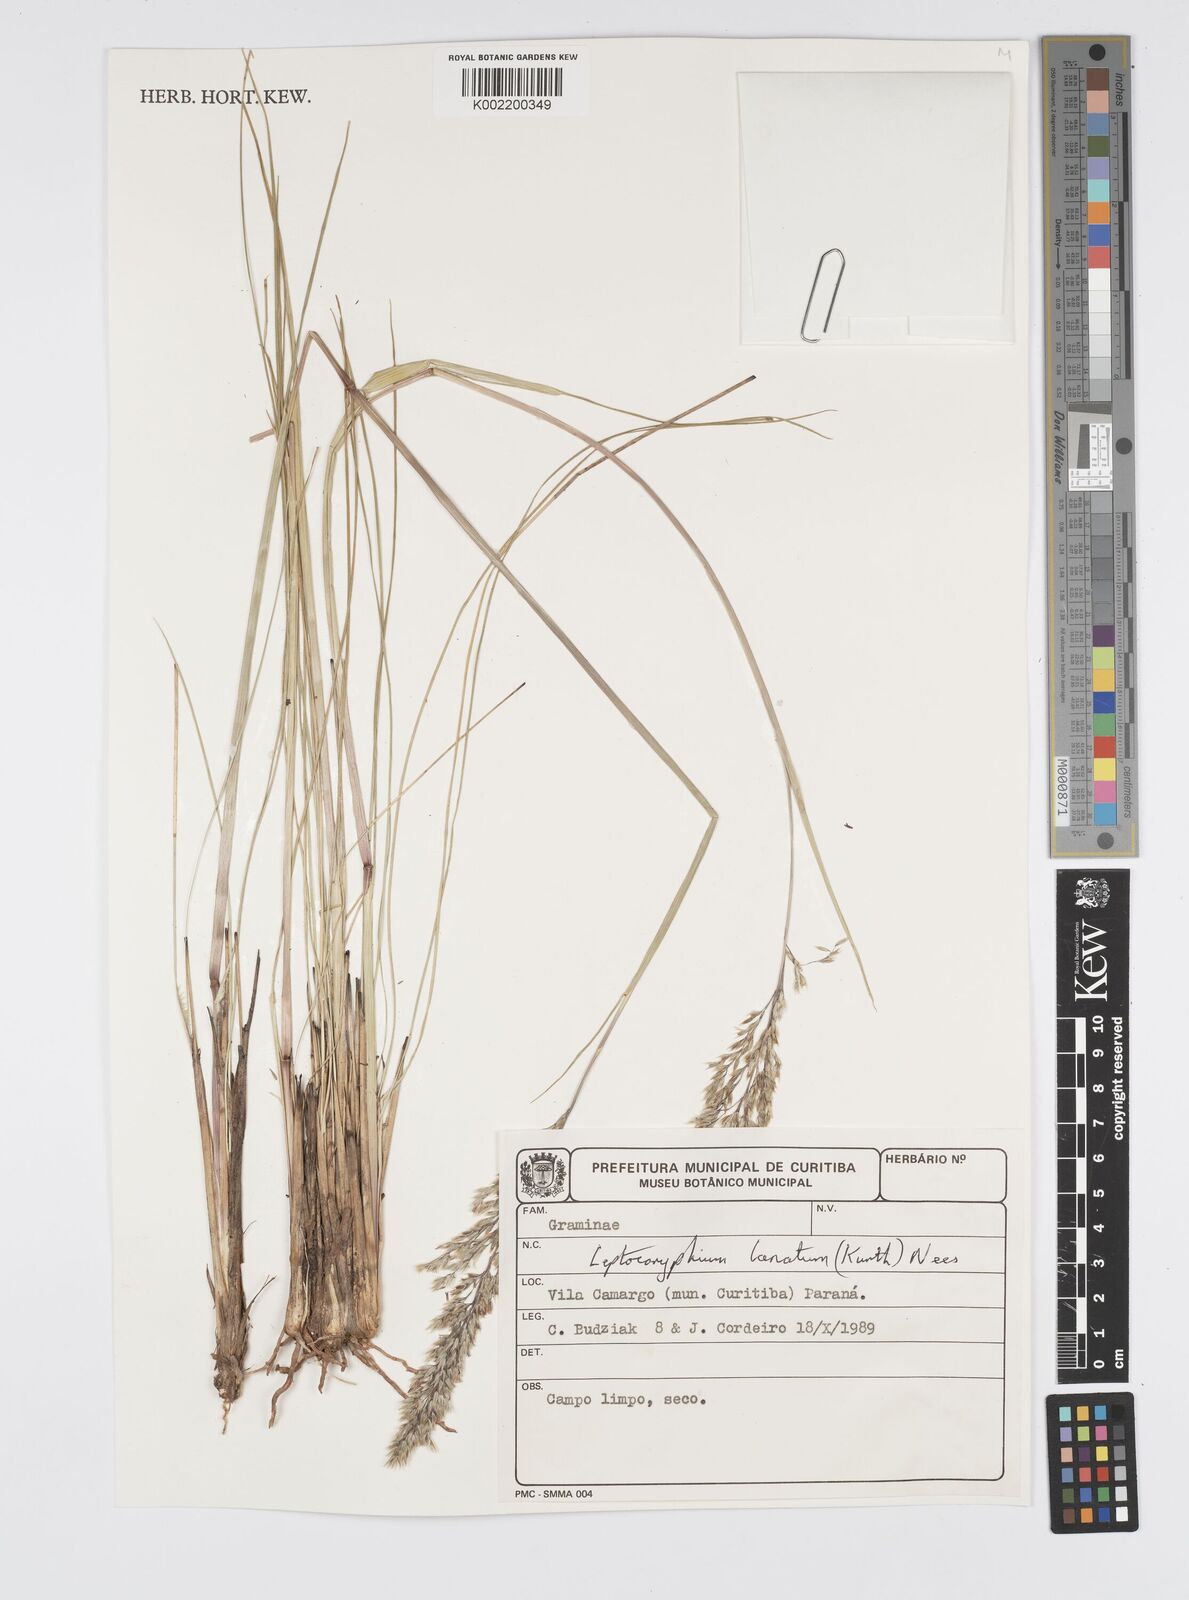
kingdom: Plantae
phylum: Tracheophyta
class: Liliopsida
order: Poales
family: Poaceae
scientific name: Poaceae
